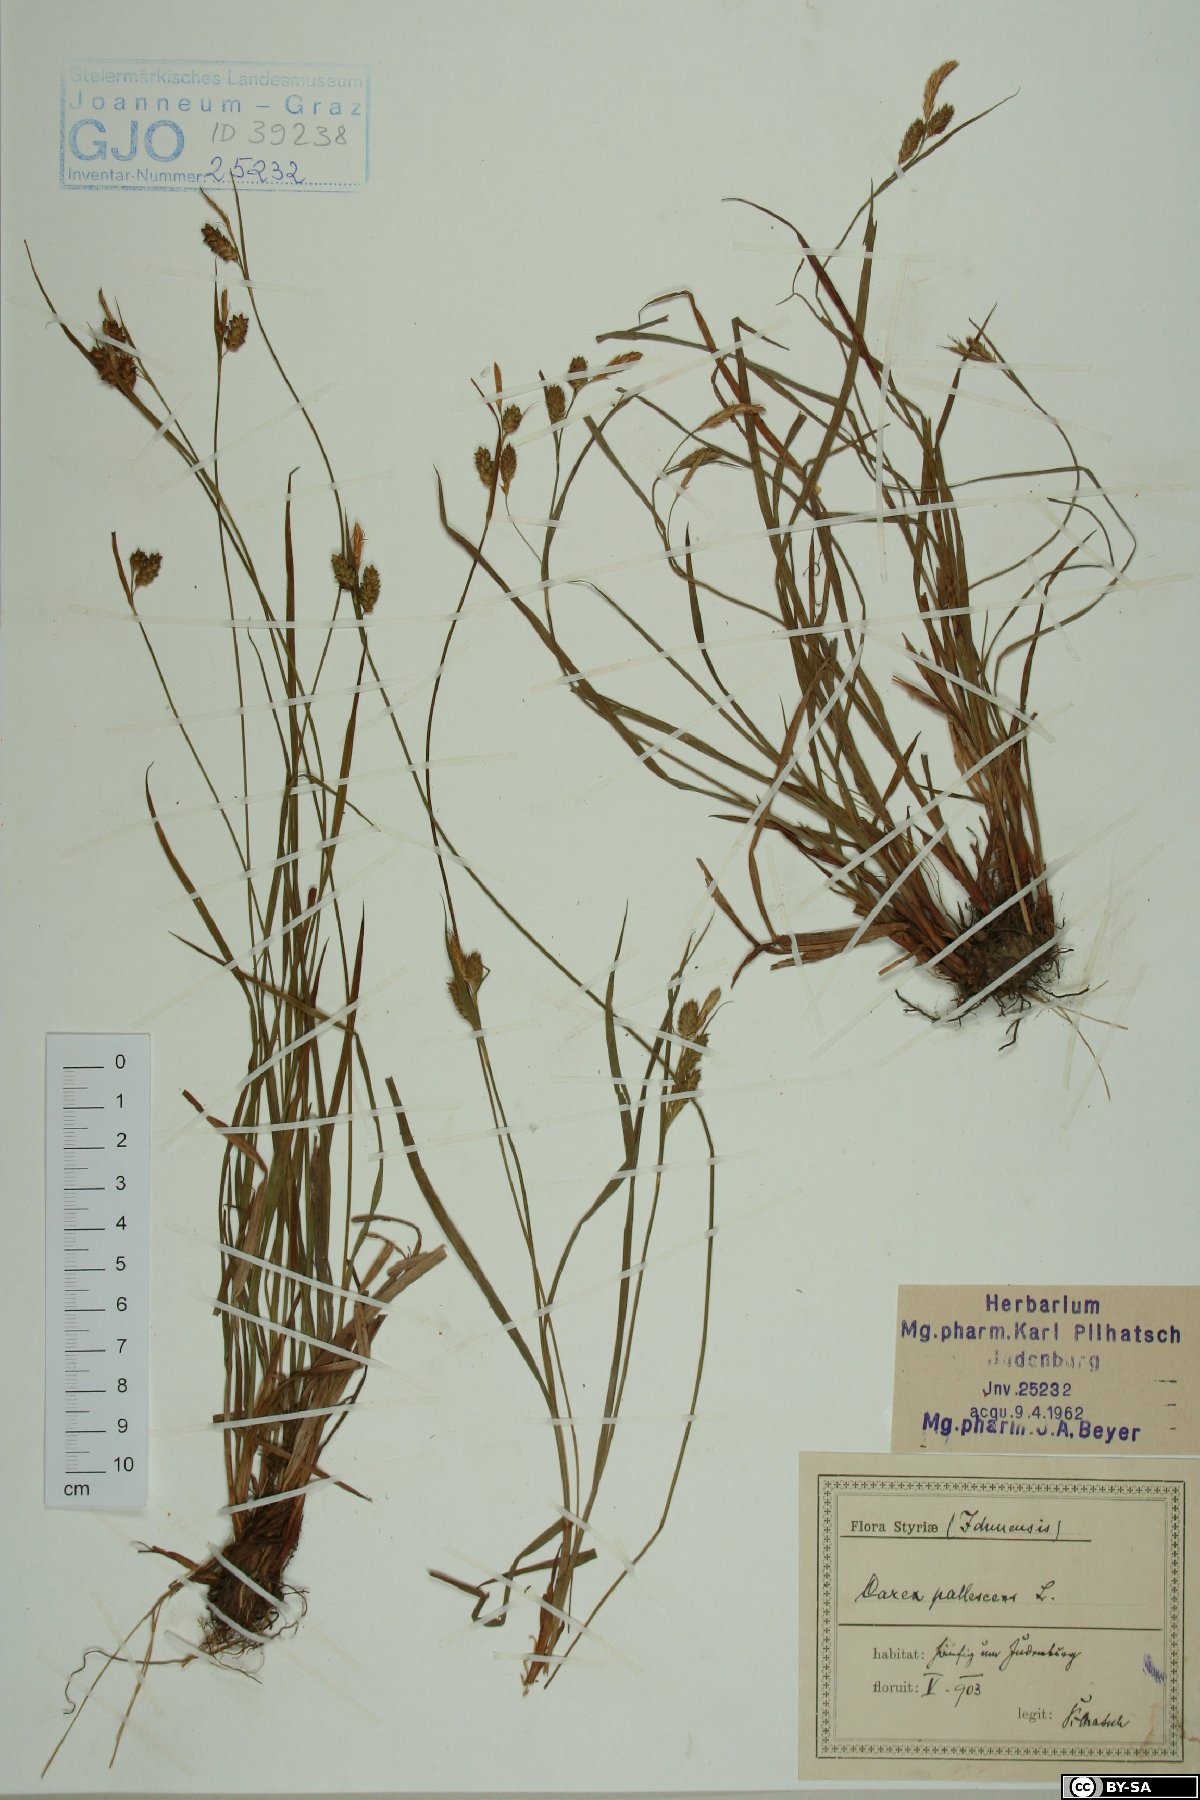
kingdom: Plantae
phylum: Tracheophyta
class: Liliopsida
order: Poales
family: Cyperaceae
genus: Carex
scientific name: Carex pallescens
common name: Pale sedge
